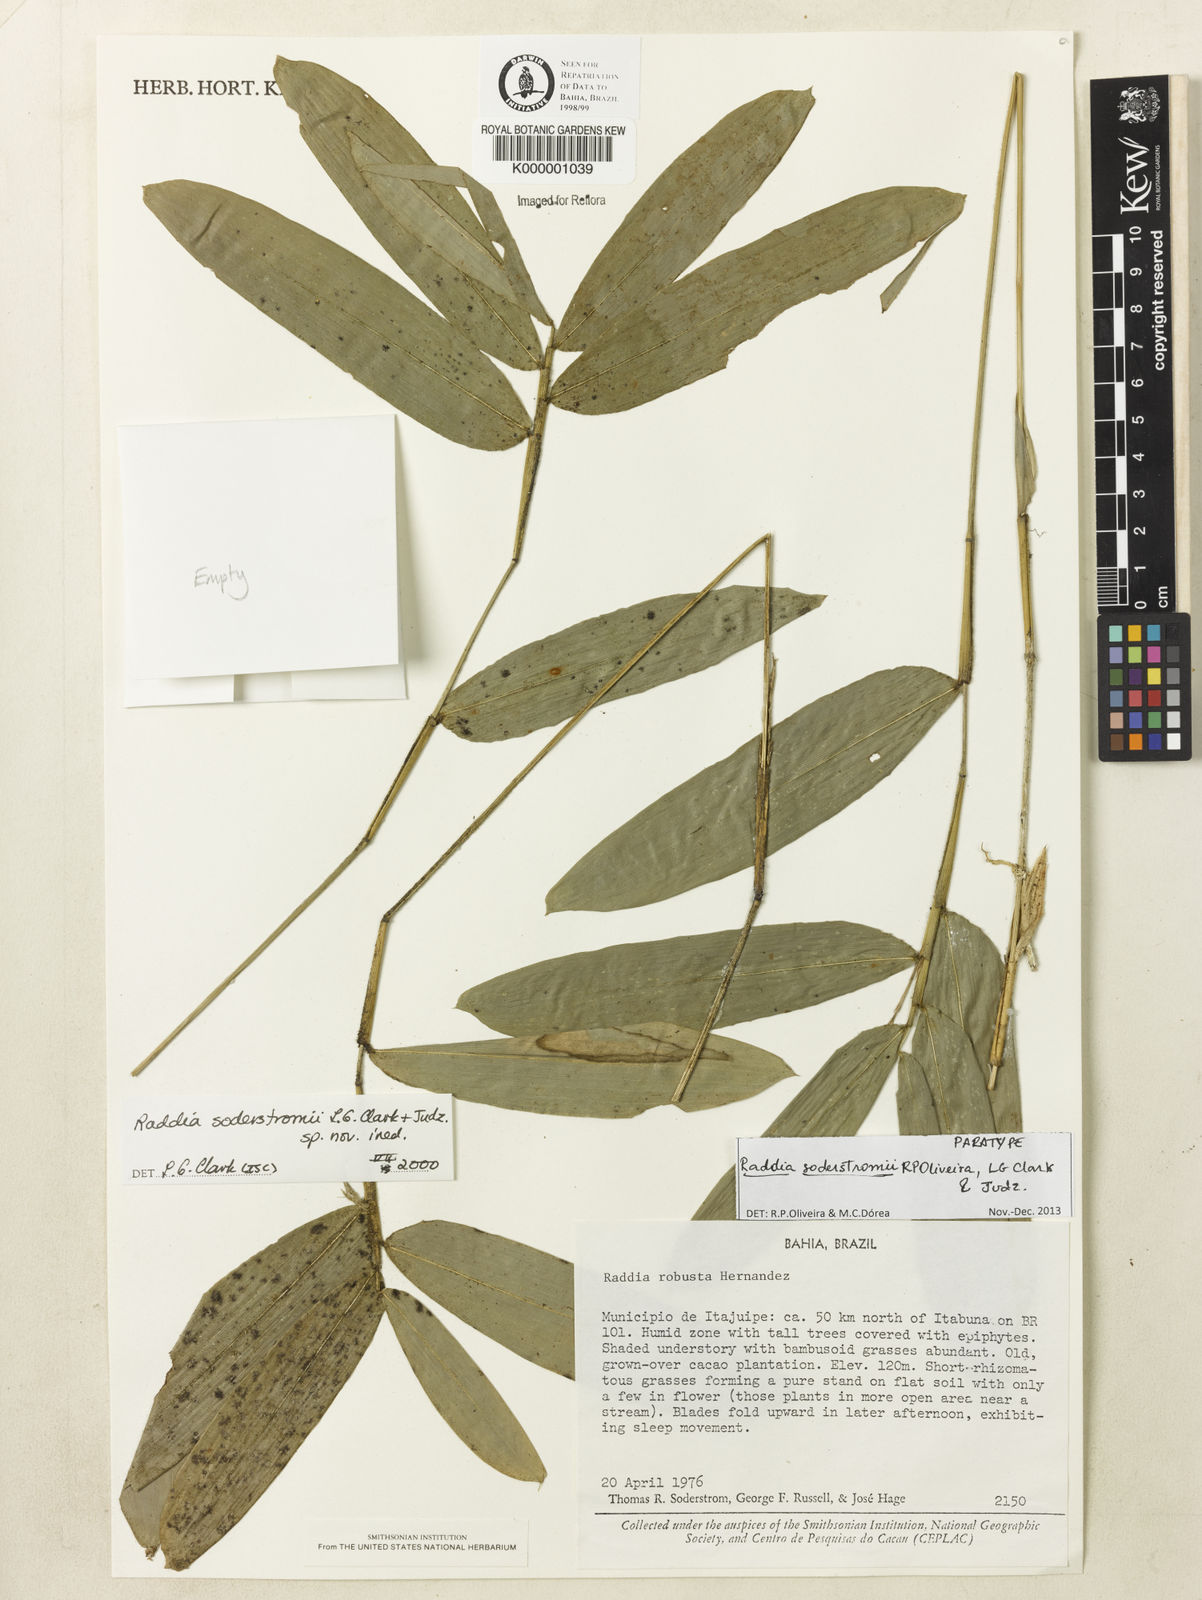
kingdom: Plantae
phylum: Tracheophyta
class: Liliopsida
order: Poales
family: Poaceae
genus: Raddia
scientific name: Raddia
